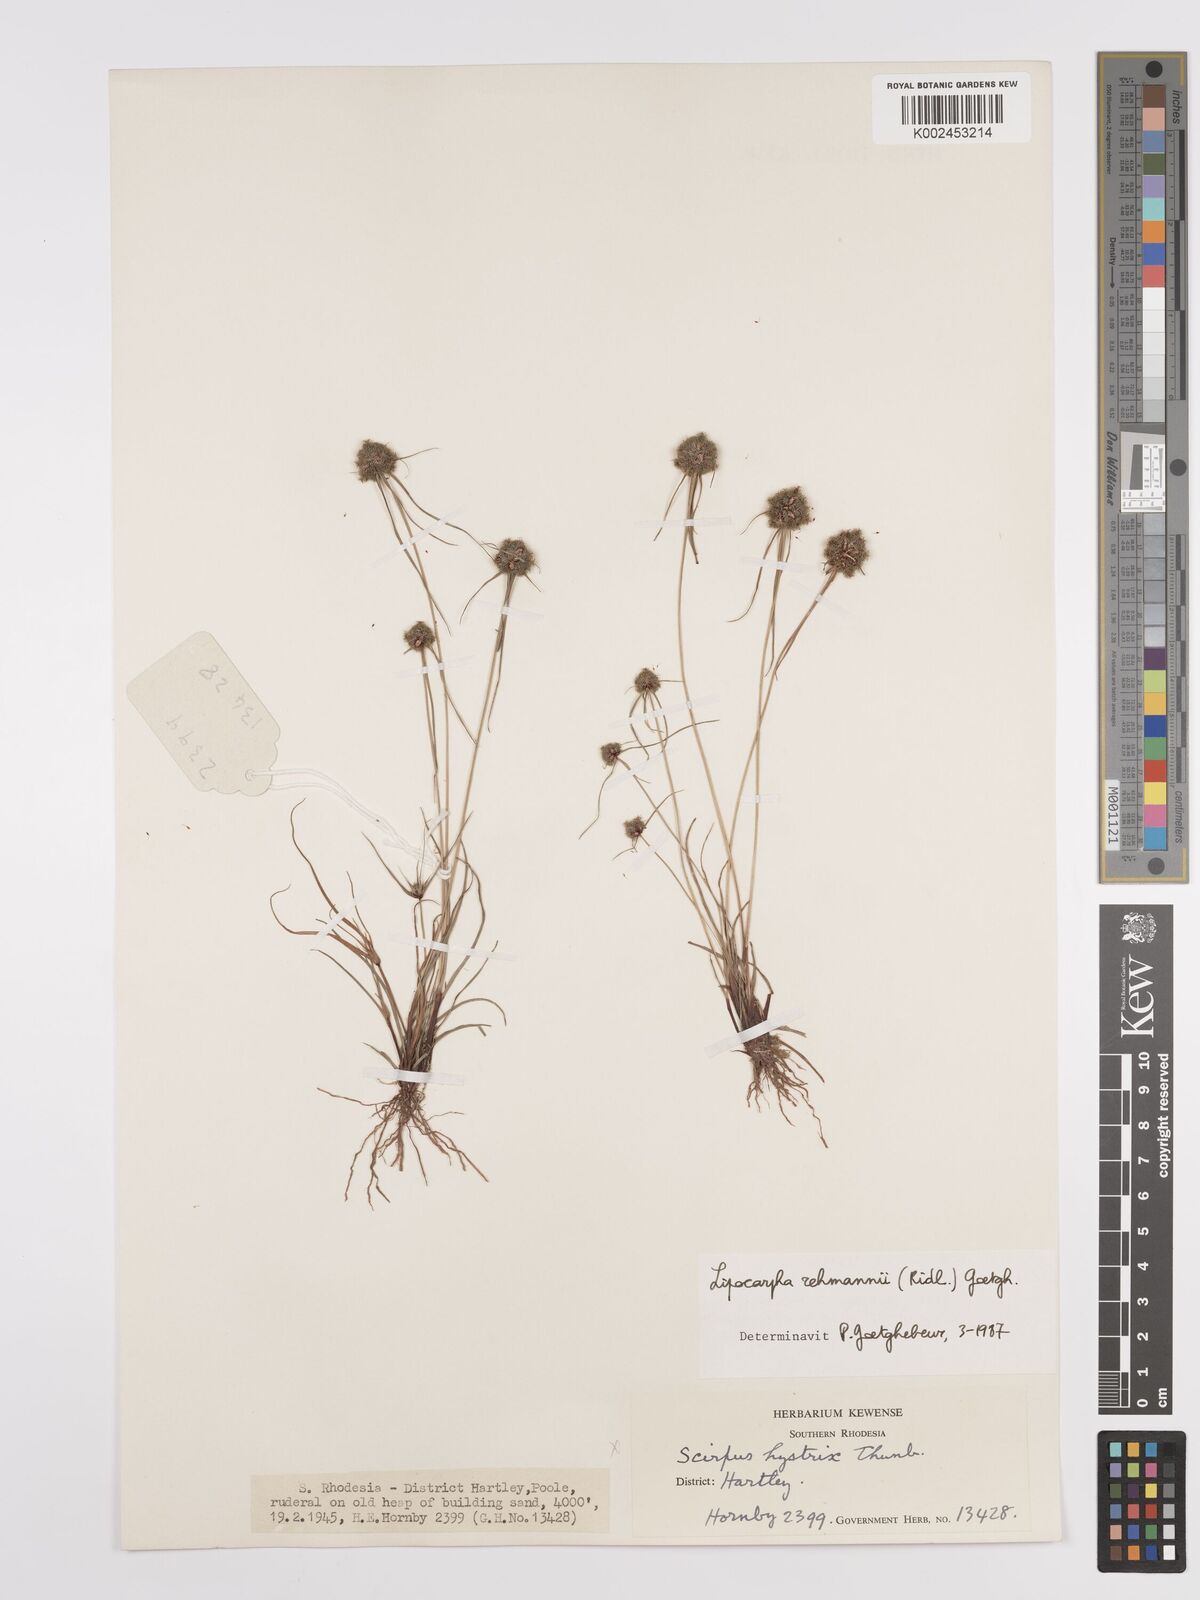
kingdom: Plantae
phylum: Tracheophyta
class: Liliopsida
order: Poales
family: Cyperaceae
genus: Cyperus
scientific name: Cyperus sanguinolentus
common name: Purpleglume flatsedge
